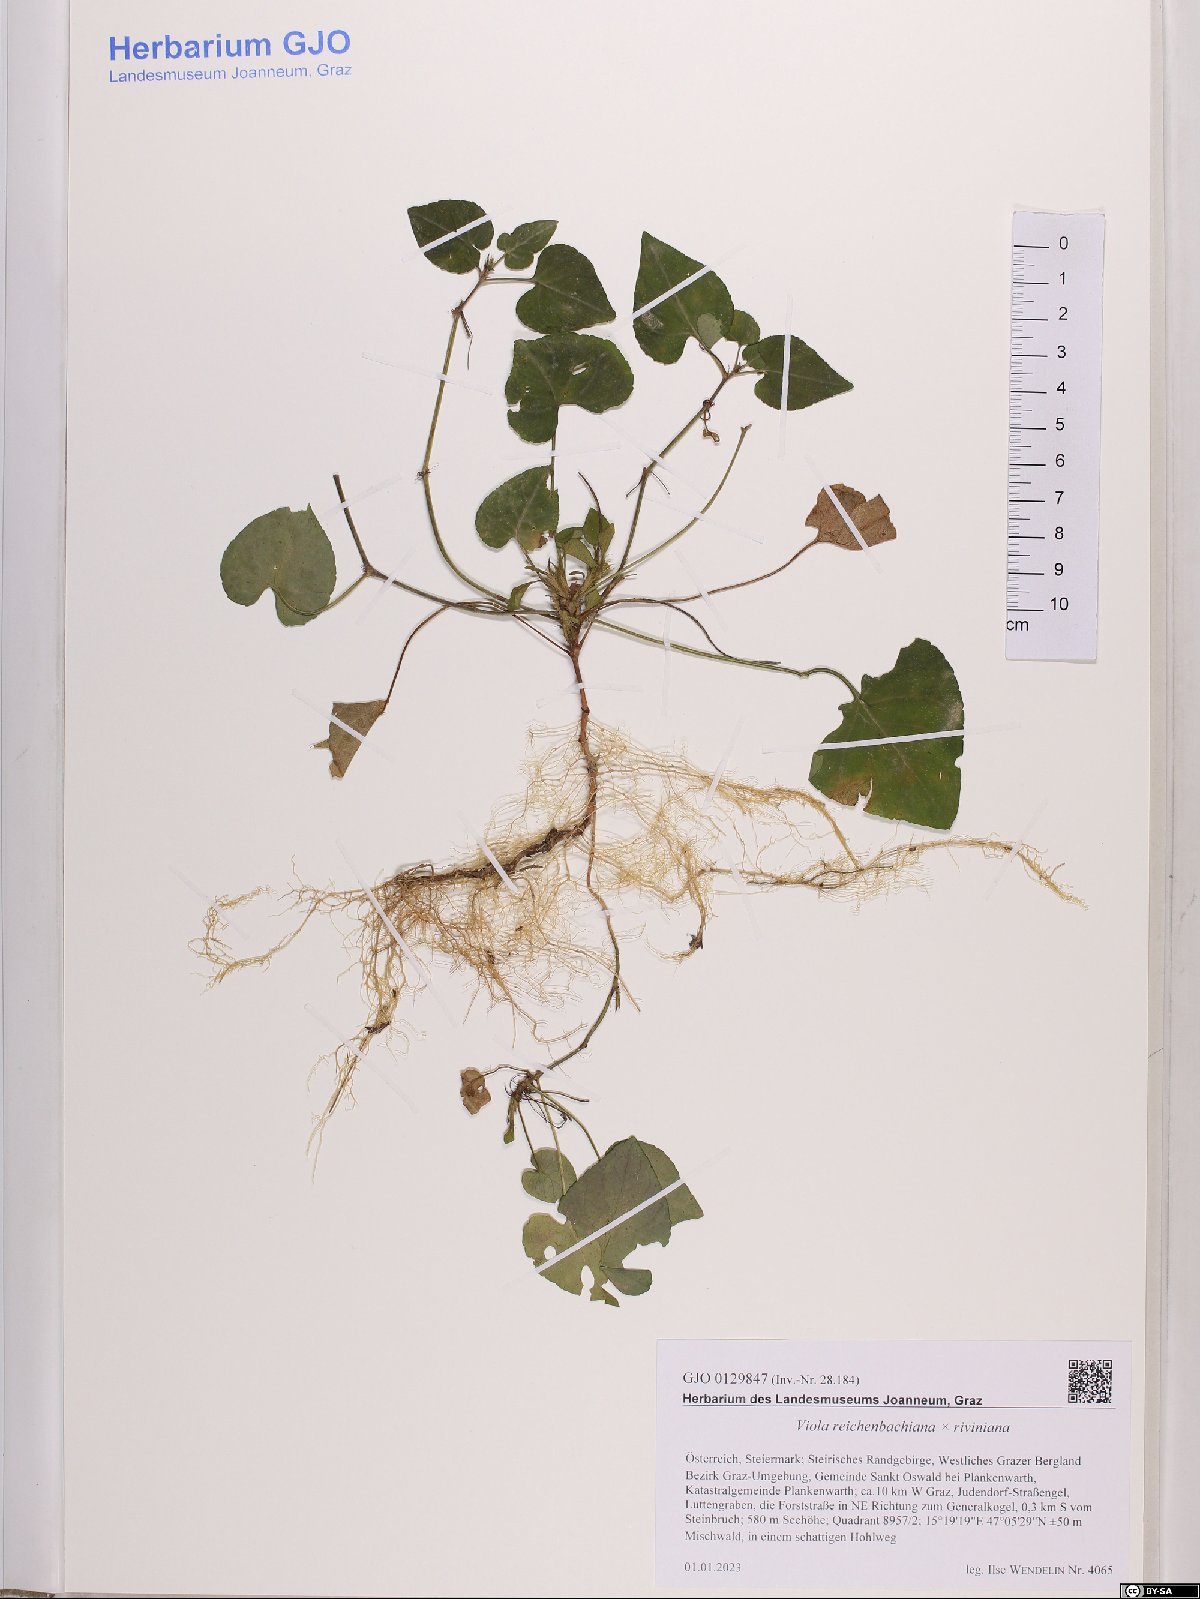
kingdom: Plantae
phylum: Tracheophyta
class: Magnoliopsida
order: Malpighiales
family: Violaceae
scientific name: Violaceae
